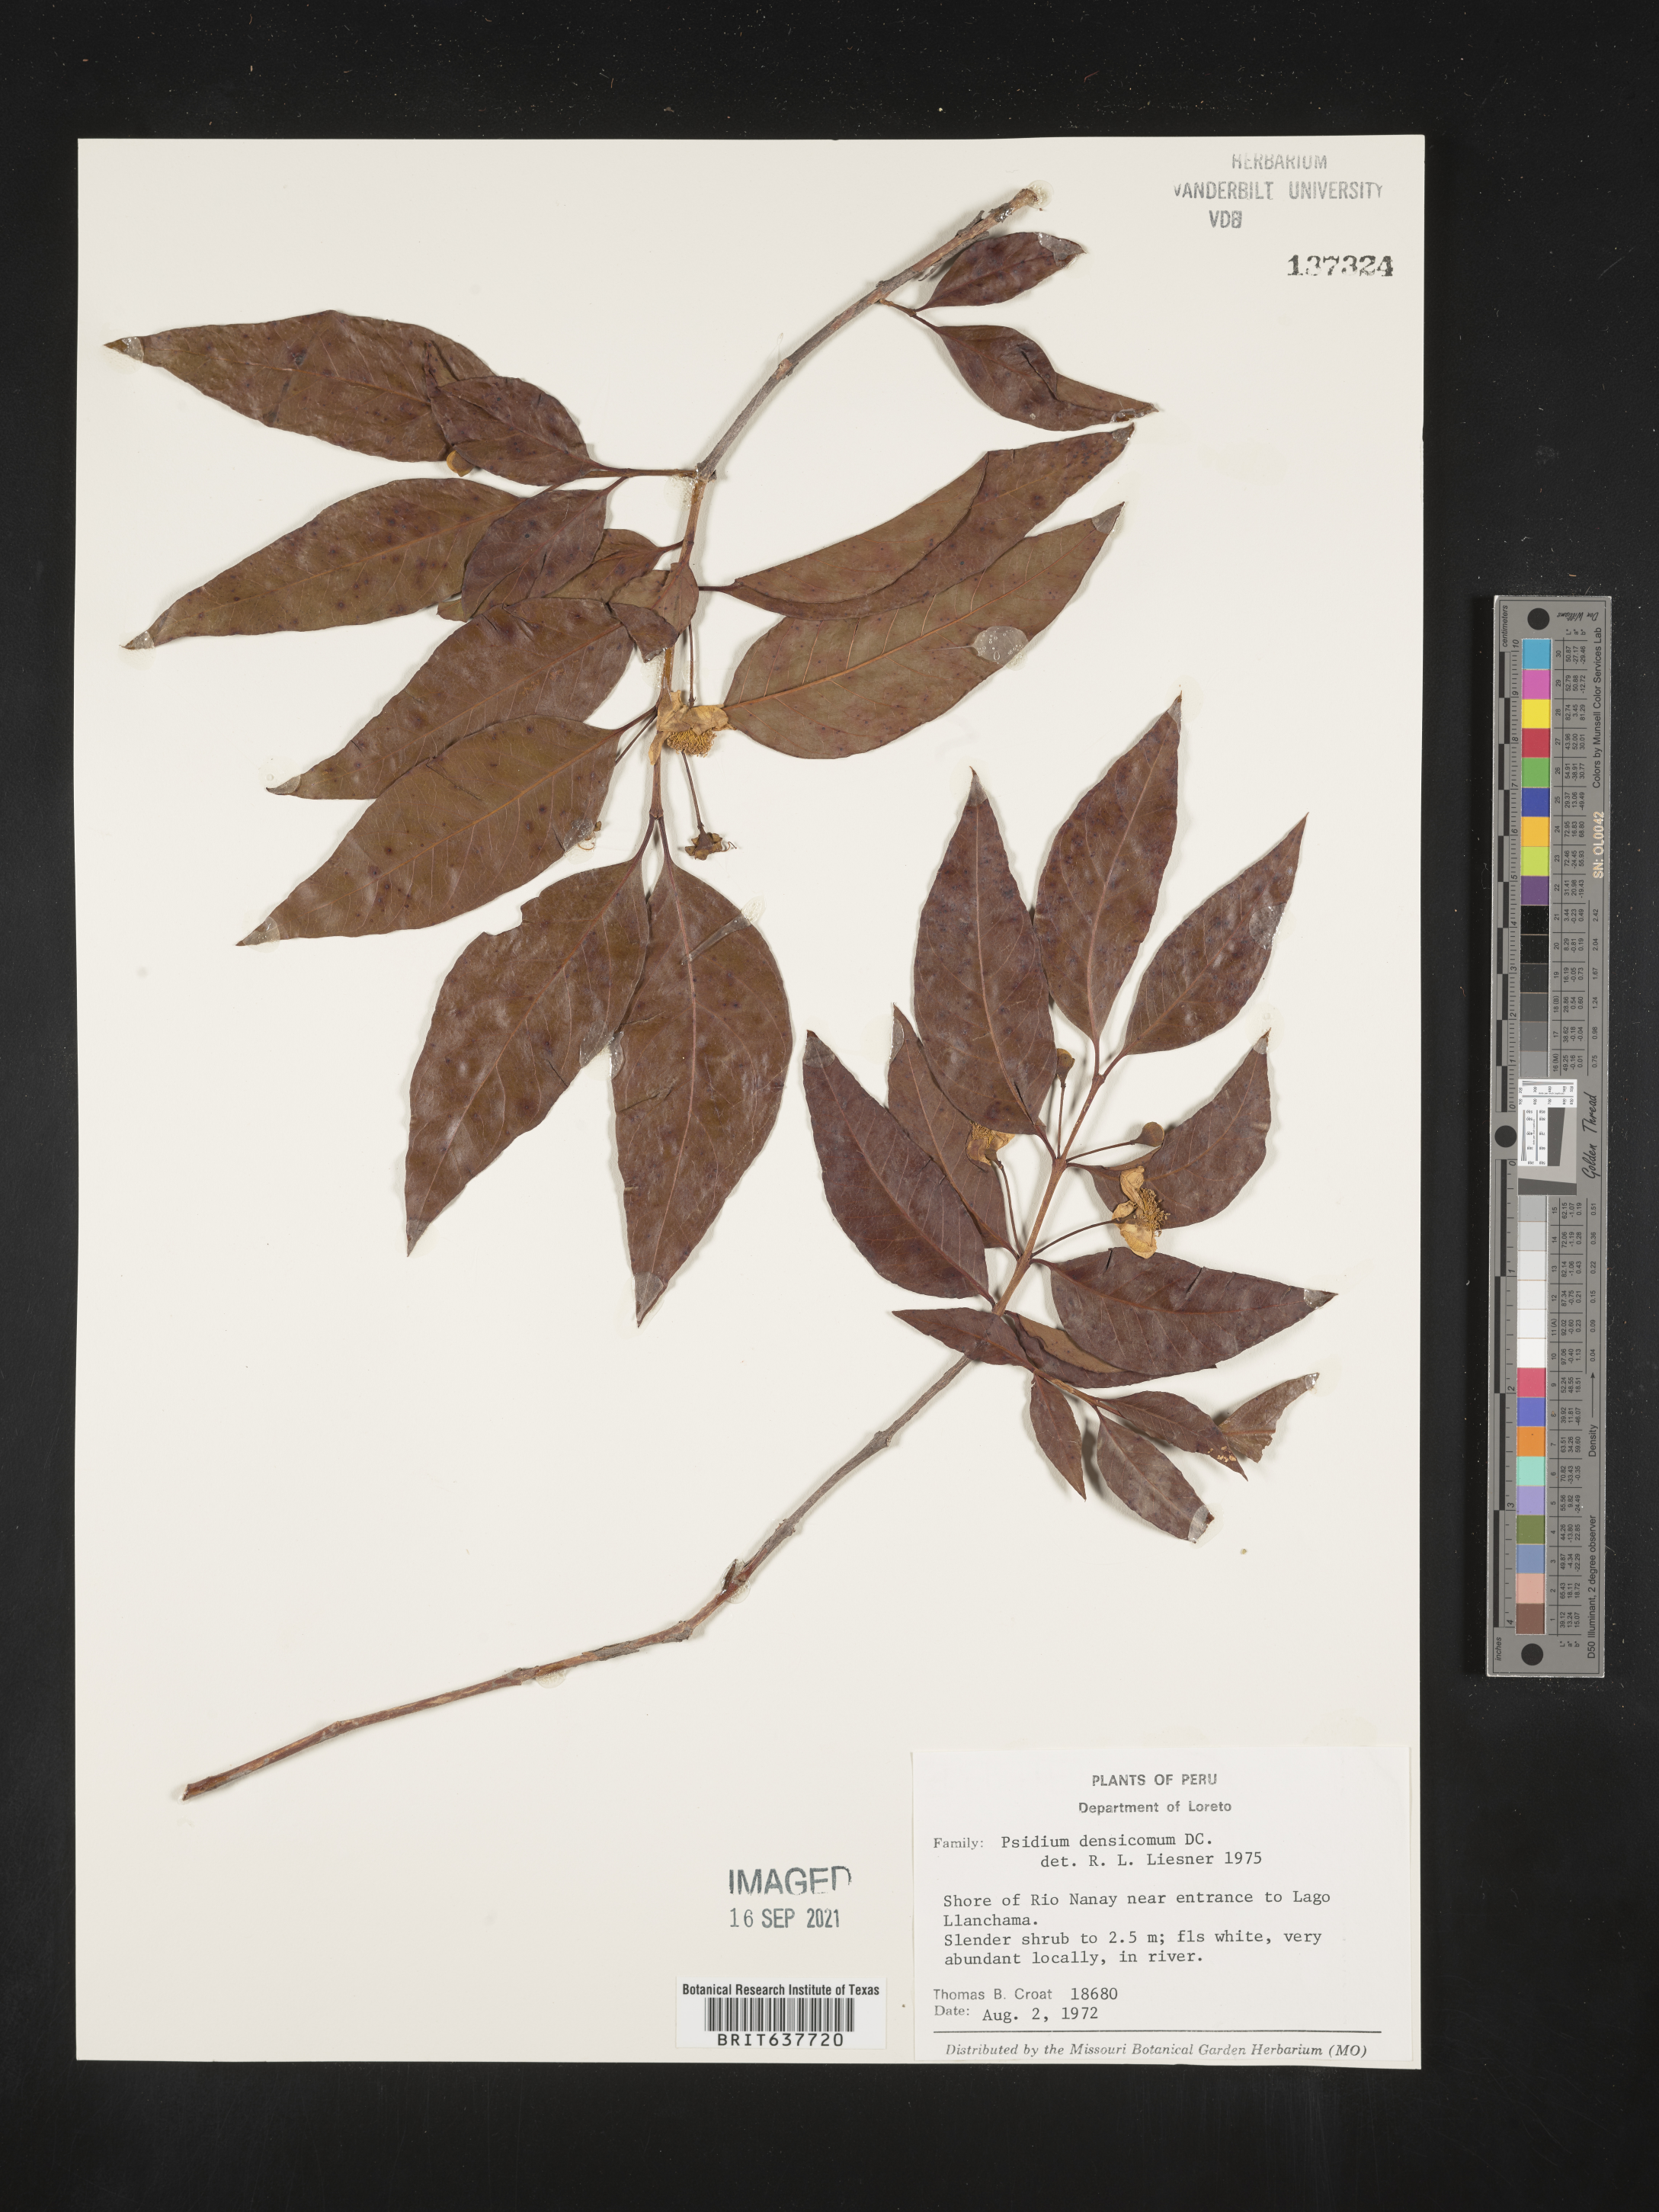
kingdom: Plantae
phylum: Tracheophyta
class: Magnoliopsida
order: Myrtales
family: Myrtaceae
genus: Psidium
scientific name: Psidium
